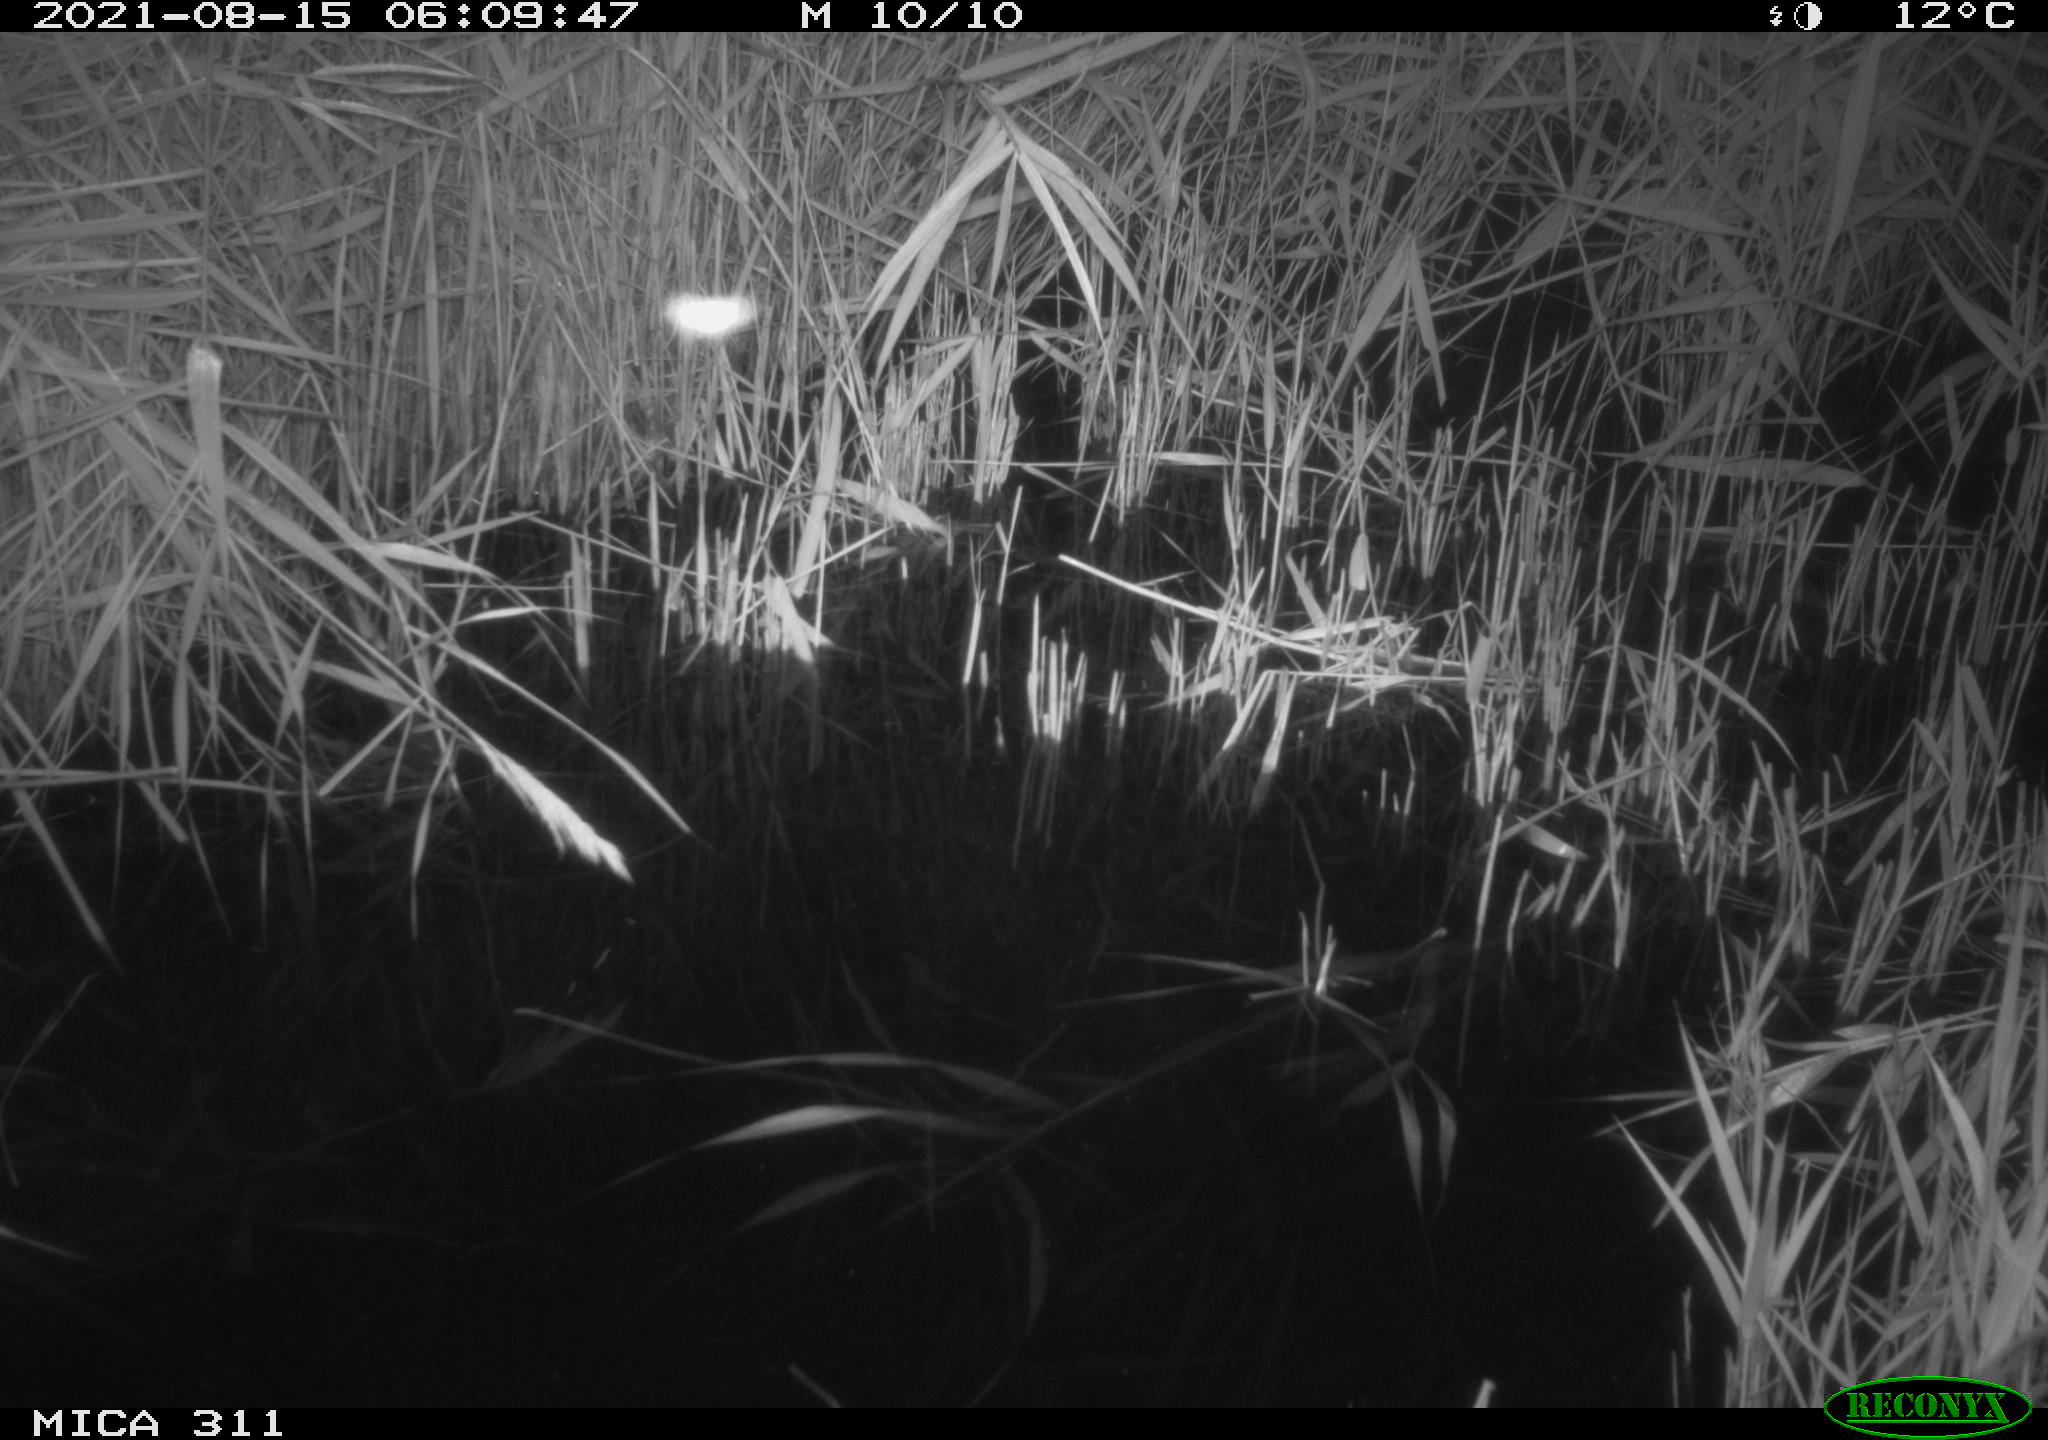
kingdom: Animalia
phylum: Chordata
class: Mammalia
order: Rodentia
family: Muridae
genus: Rattus
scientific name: Rattus norvegicus
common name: Brown rat
